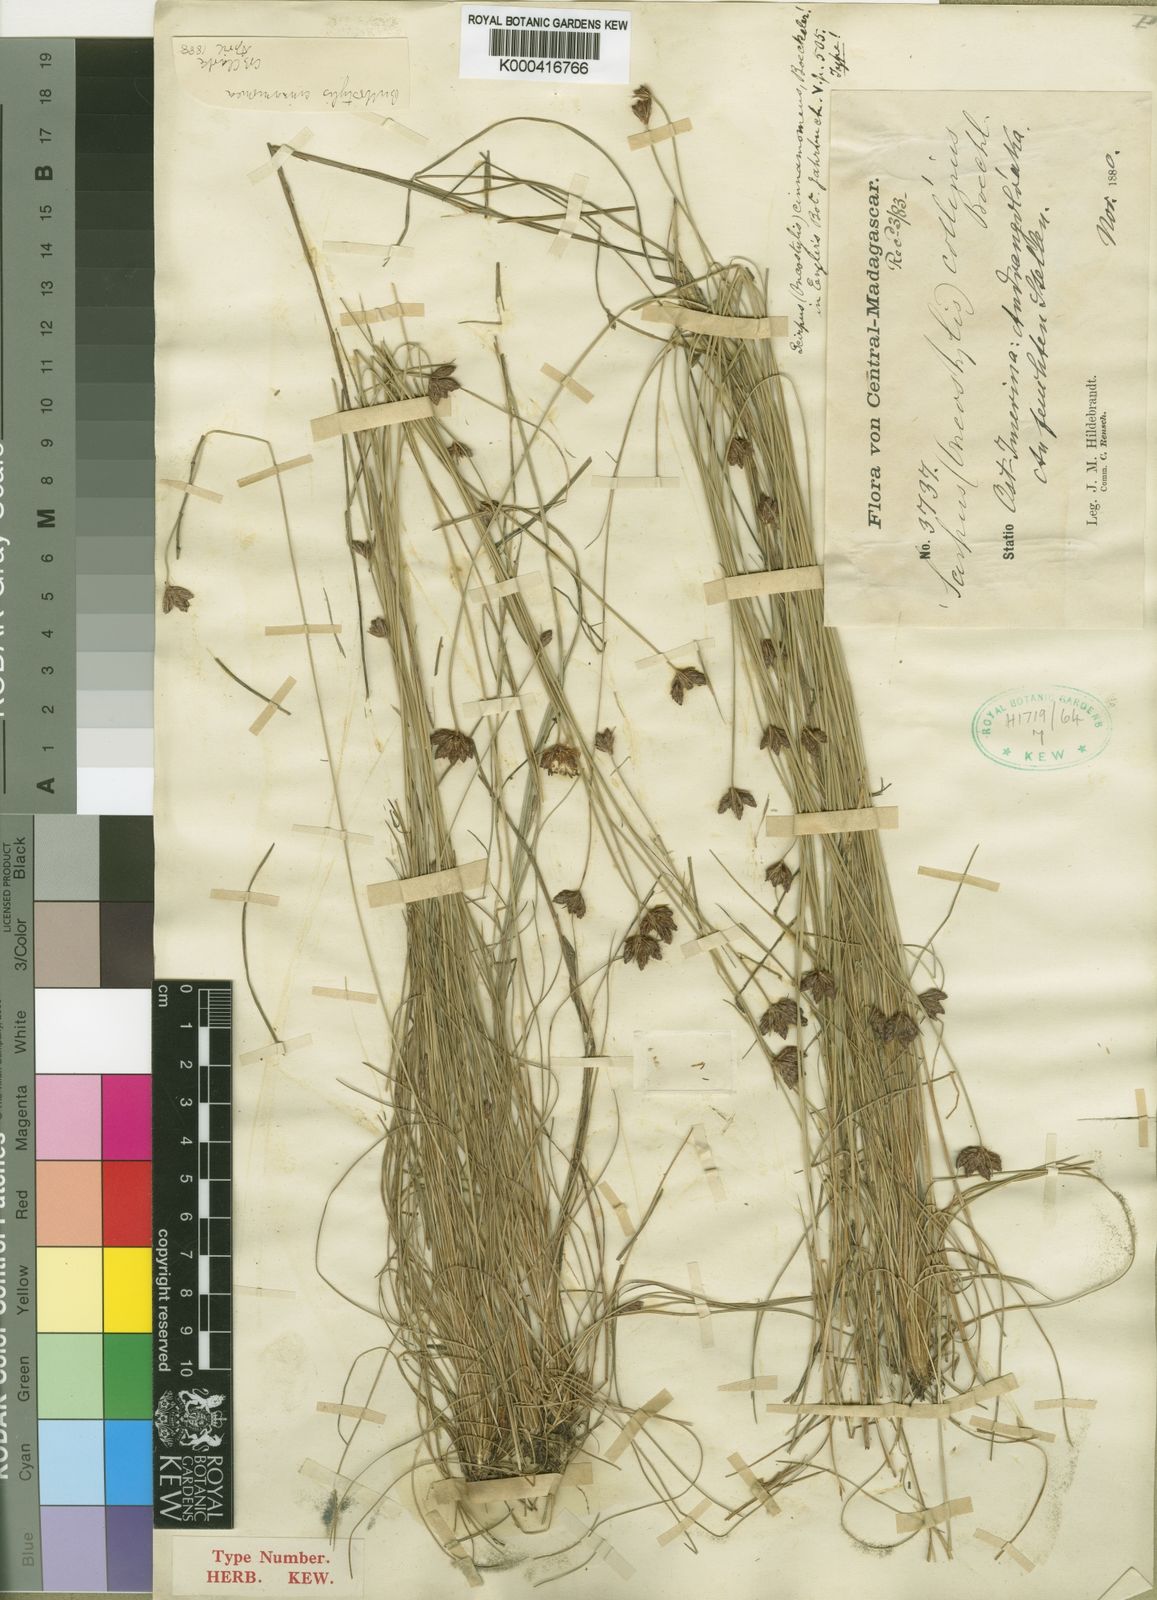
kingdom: Plantae
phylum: Tracheophyta
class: Liliopsida
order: Poales
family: Cyperaceae
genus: Bulbostylis
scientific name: Bulbostylis schoenoides
